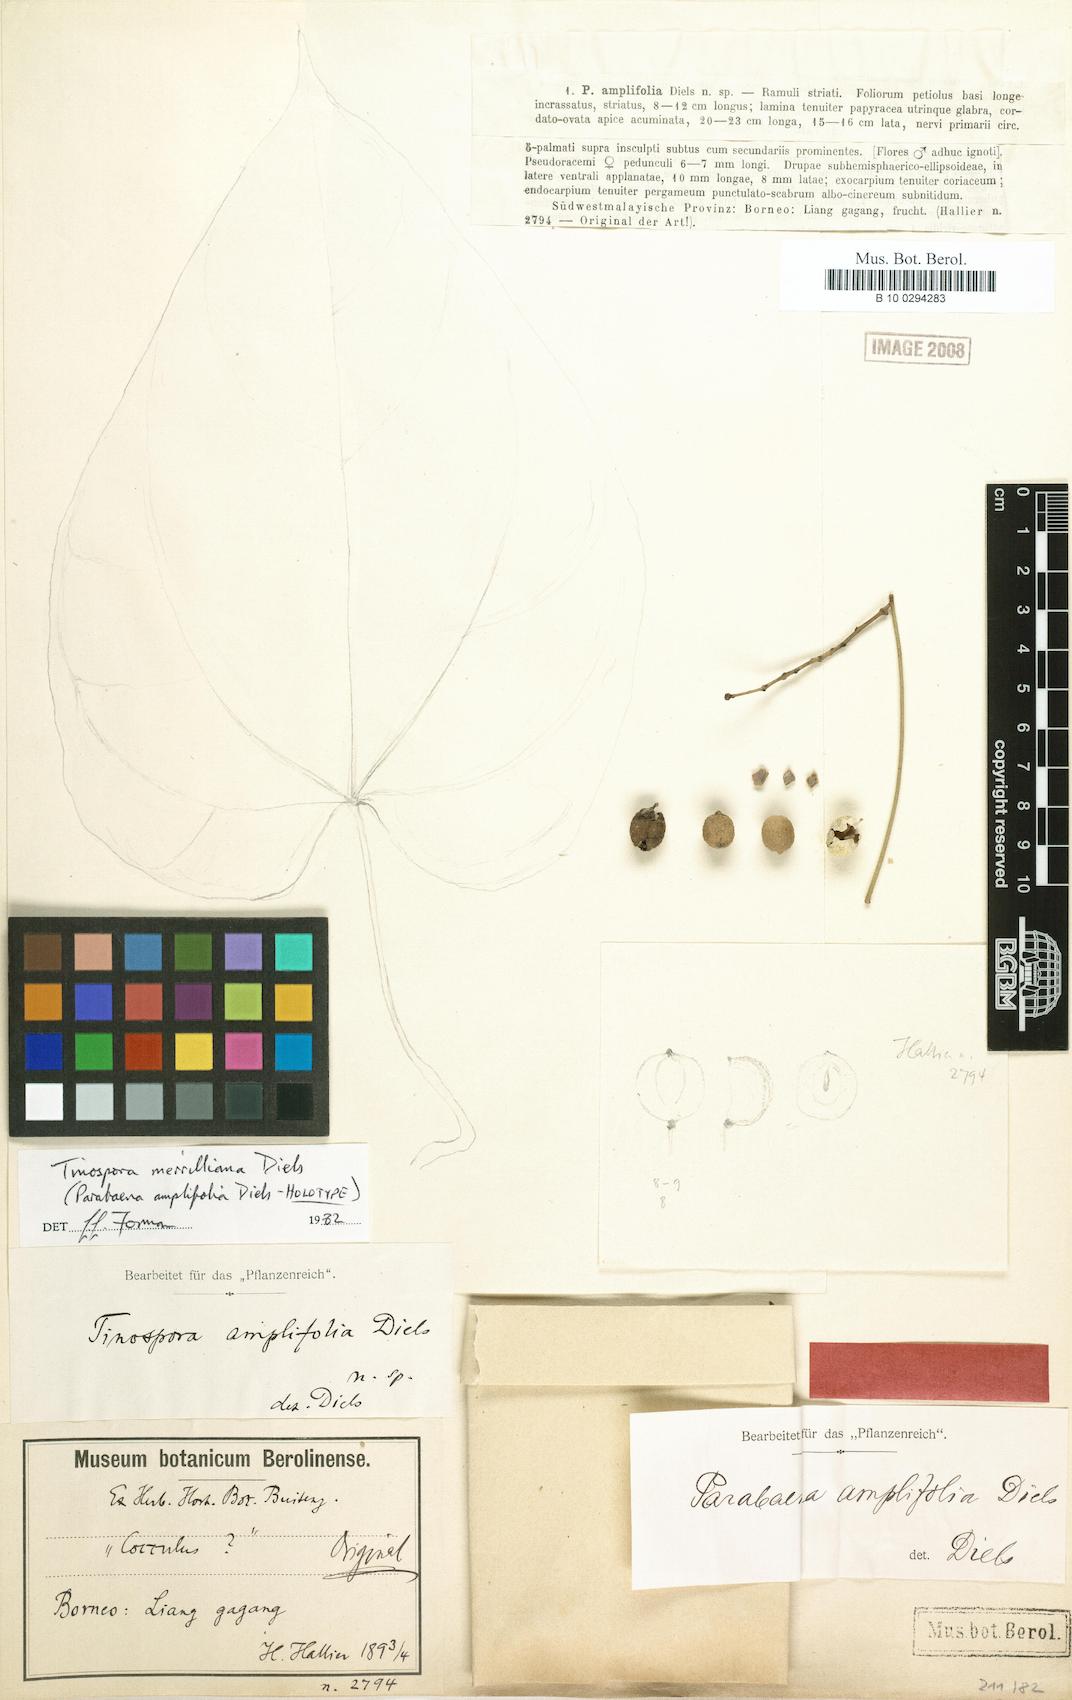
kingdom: Plantae
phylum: Tracheophyta
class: Magnoliopsida
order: Ranunculales
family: Menispermaceae
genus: Tinospora
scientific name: Tinospora merrilliana
